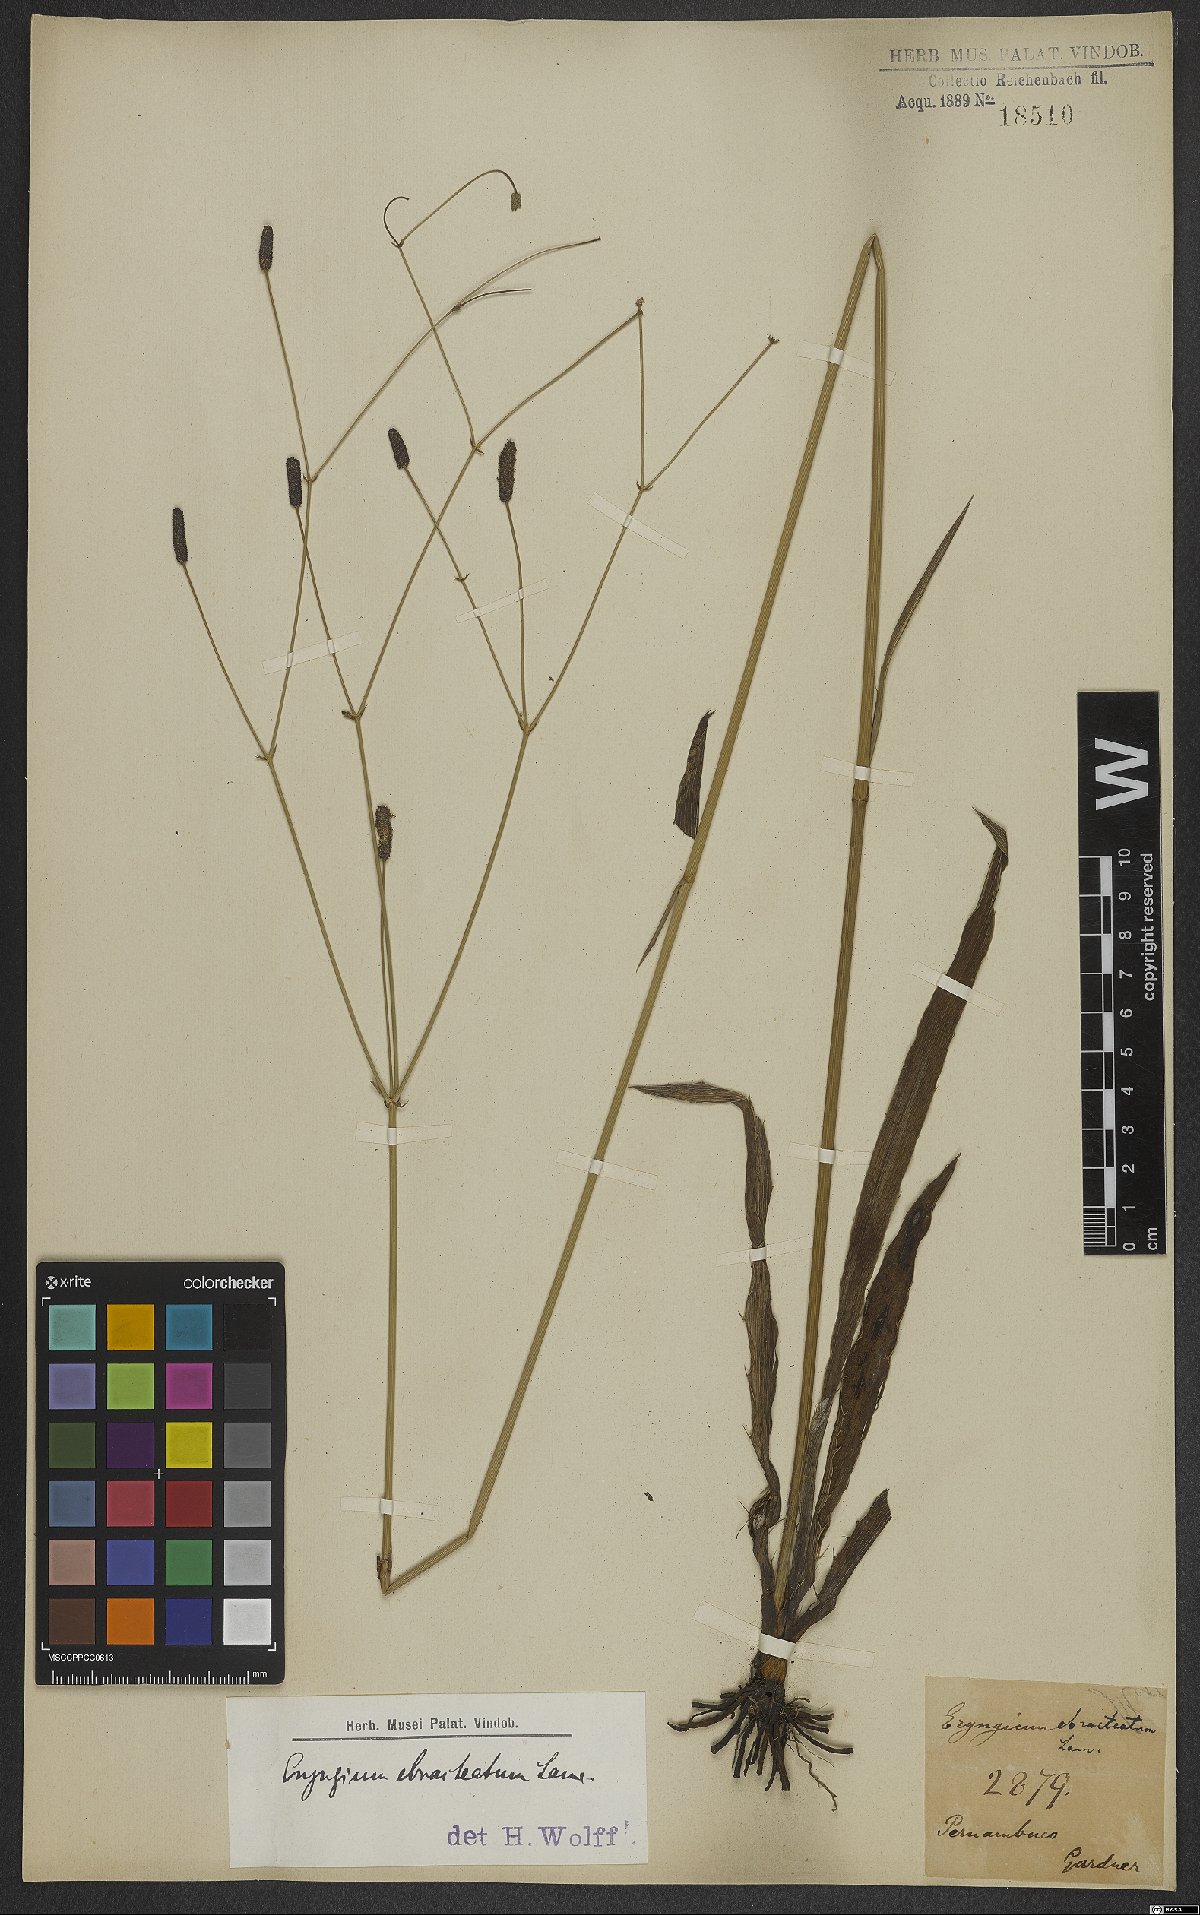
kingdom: Plantae
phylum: Tracheophyta
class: Magnoliopsida
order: Apiales
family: Apiaceae
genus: Eryngium
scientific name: Eryngium ebracteatum
